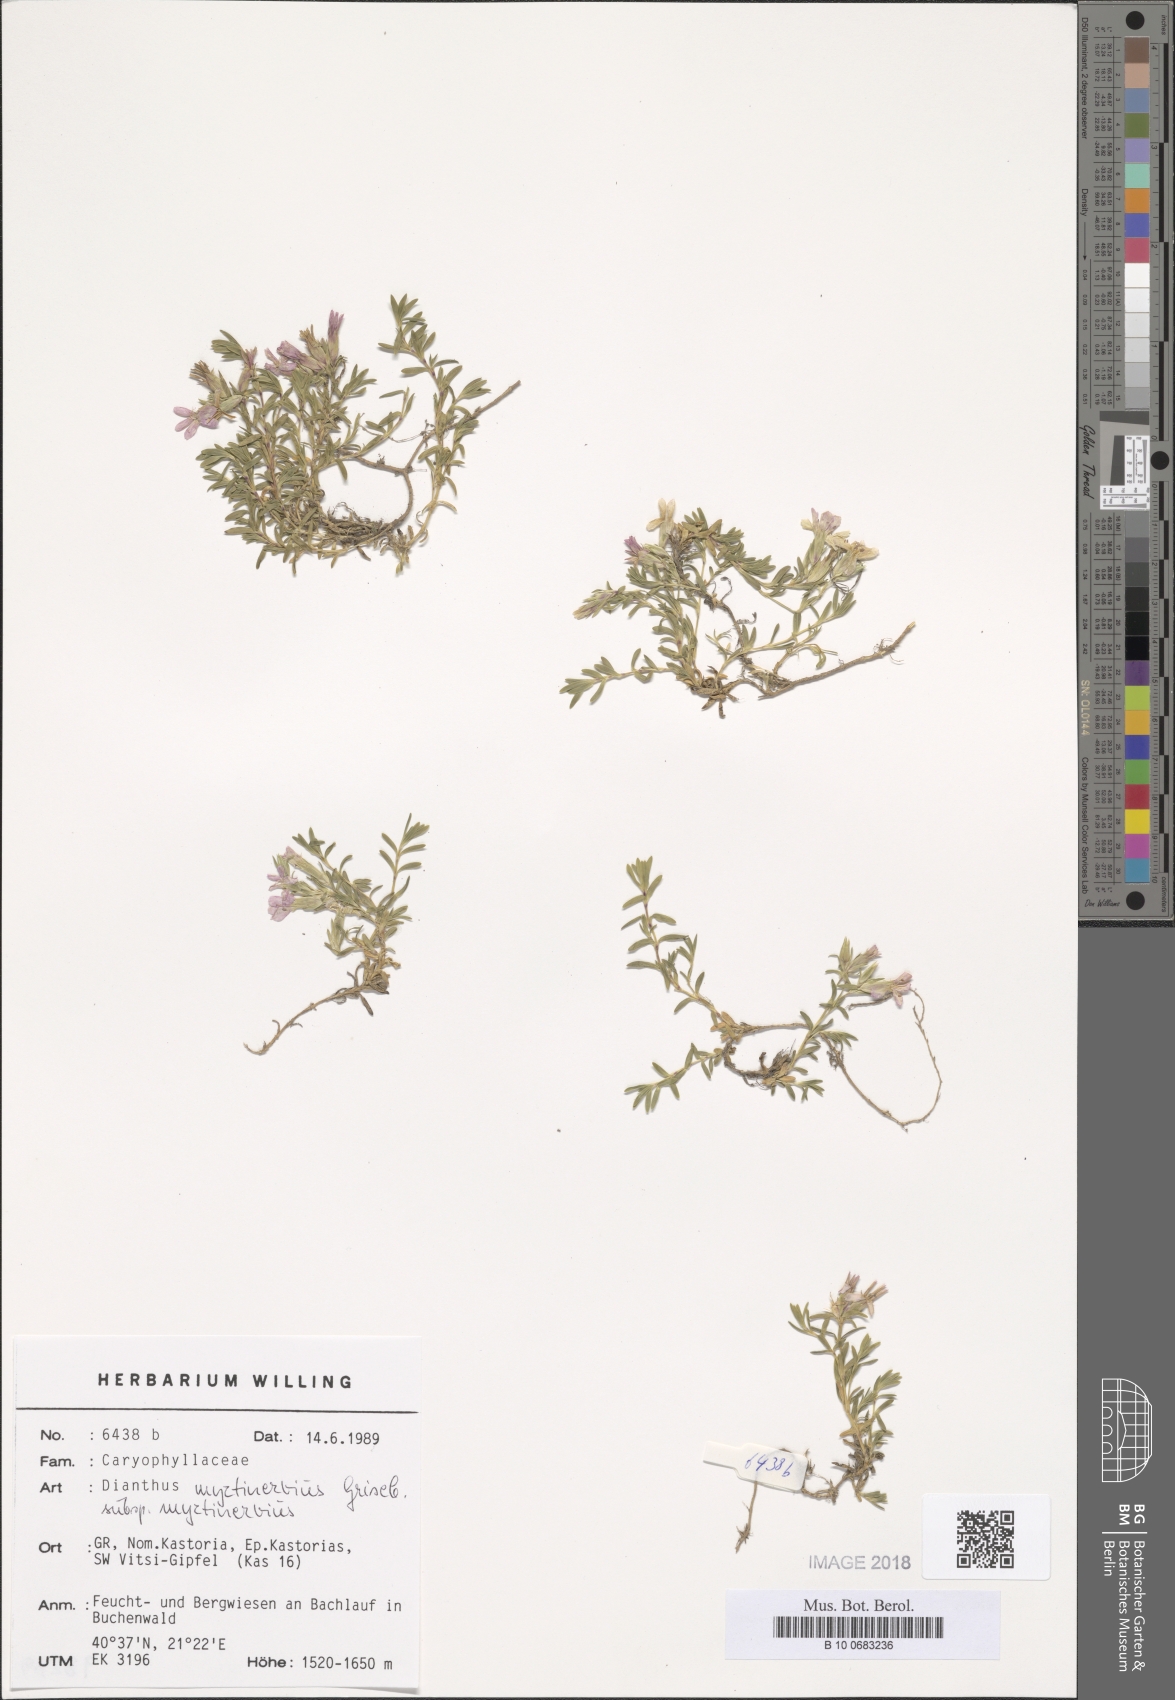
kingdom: Plantae
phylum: Tracheophyta
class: Magnoliopsida
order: Caryophyllales
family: Caryophyllaceae
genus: Dianthus
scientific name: Dianthus myrtinervius
